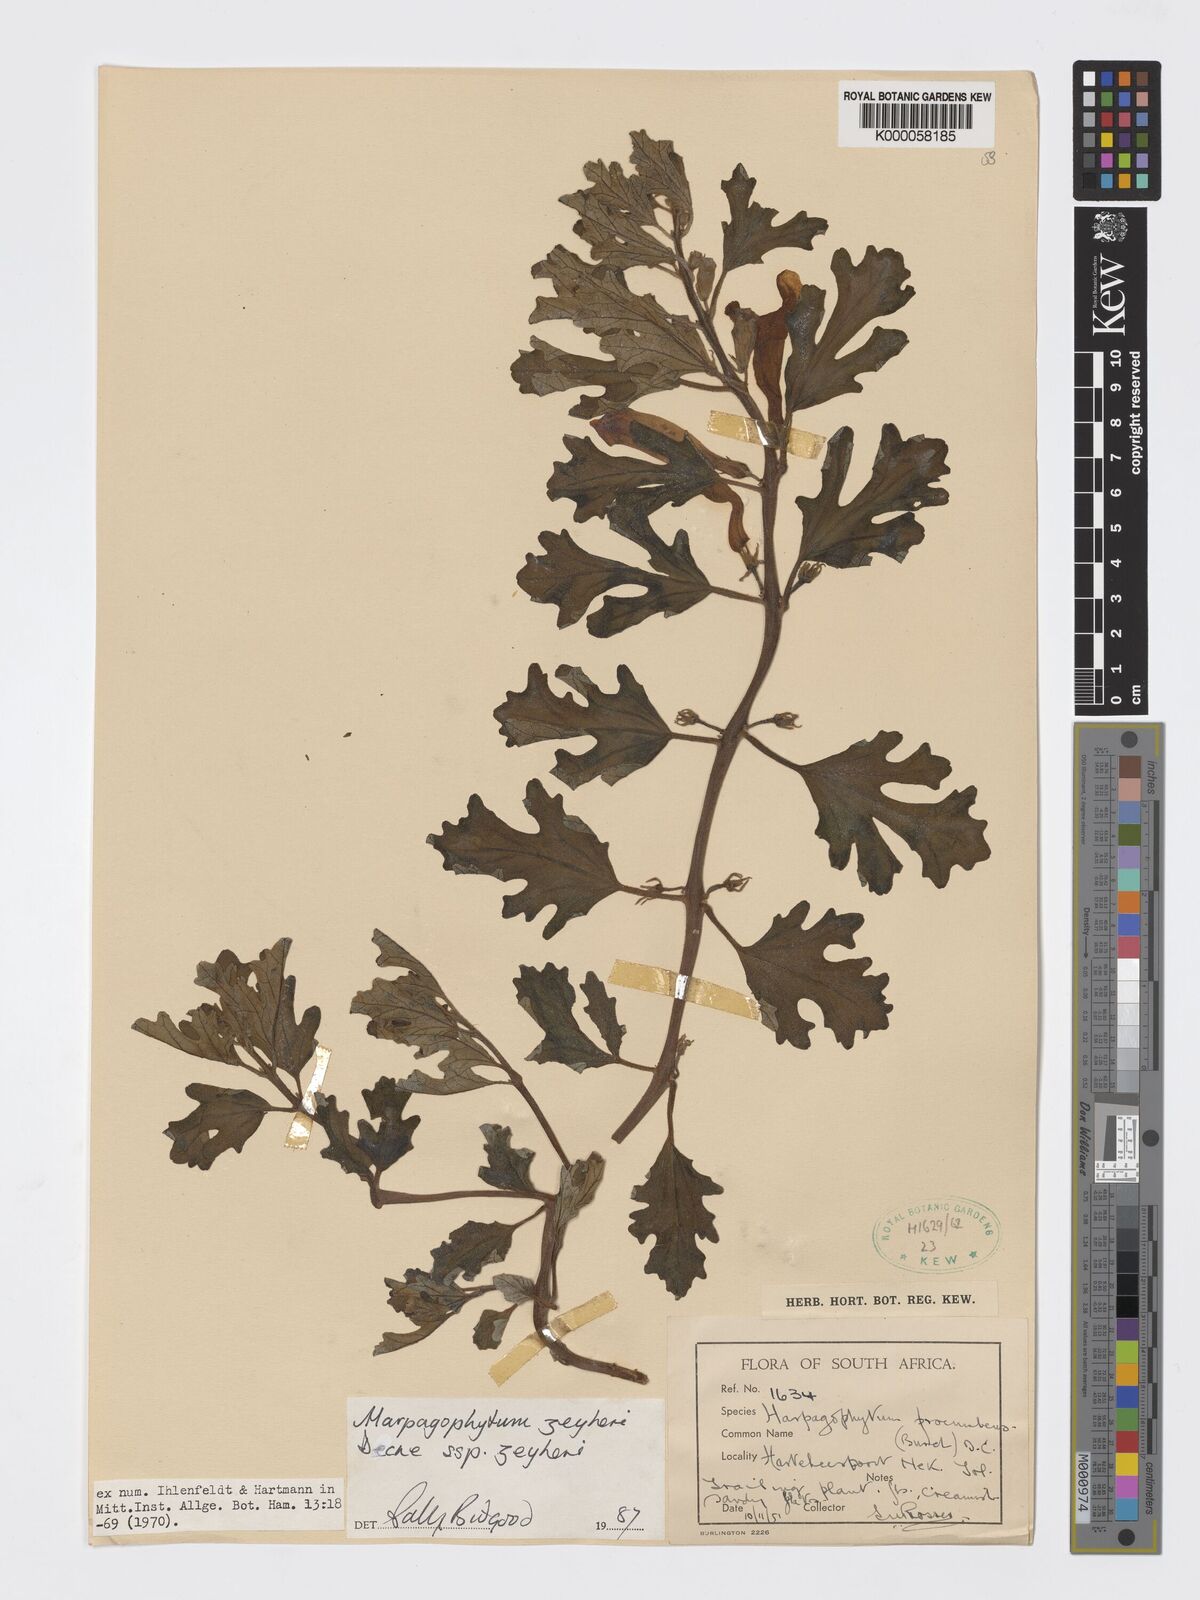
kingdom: Plantae
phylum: Tracheophyta
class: Magnoliopsida
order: Lamiales
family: Pedaliaceae
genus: Harpagophytum
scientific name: Harpagophytum zeyheri
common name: Grappleplant
